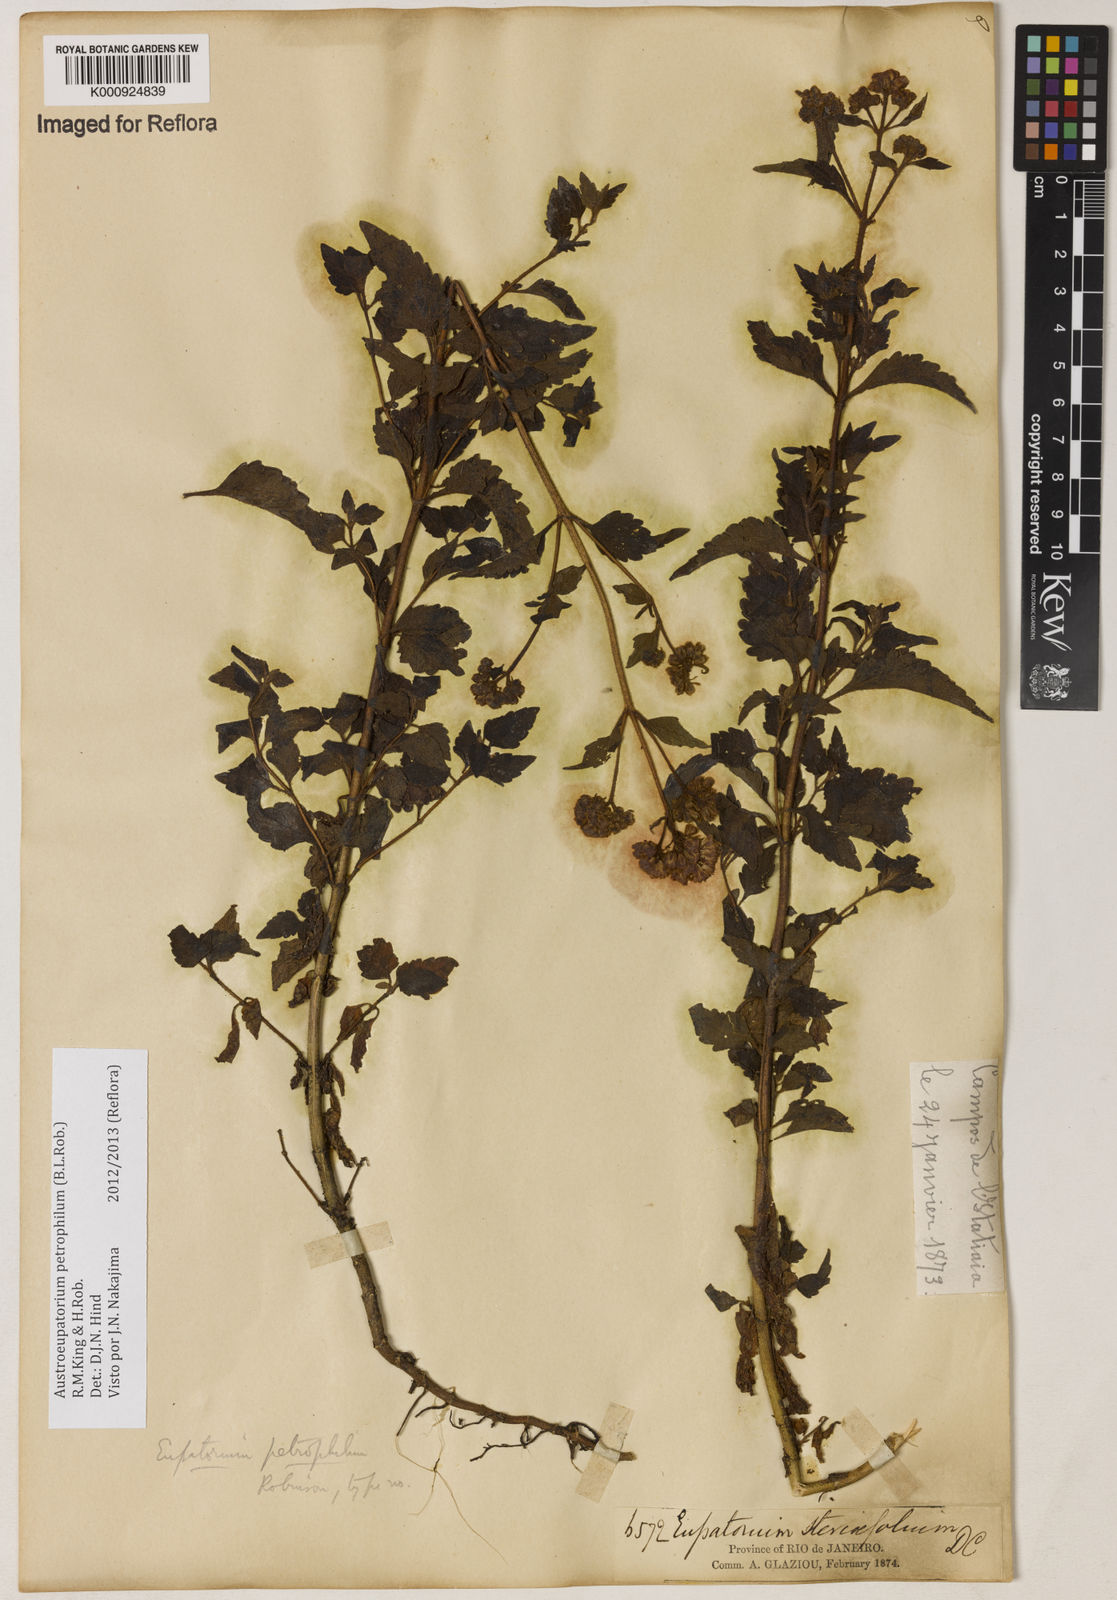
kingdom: Plantae
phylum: Tracheophyta
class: Magnoliopsida
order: Asterales
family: Asteraceae
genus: Austroeupatorium
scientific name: Austroeupatorium petrophilum
